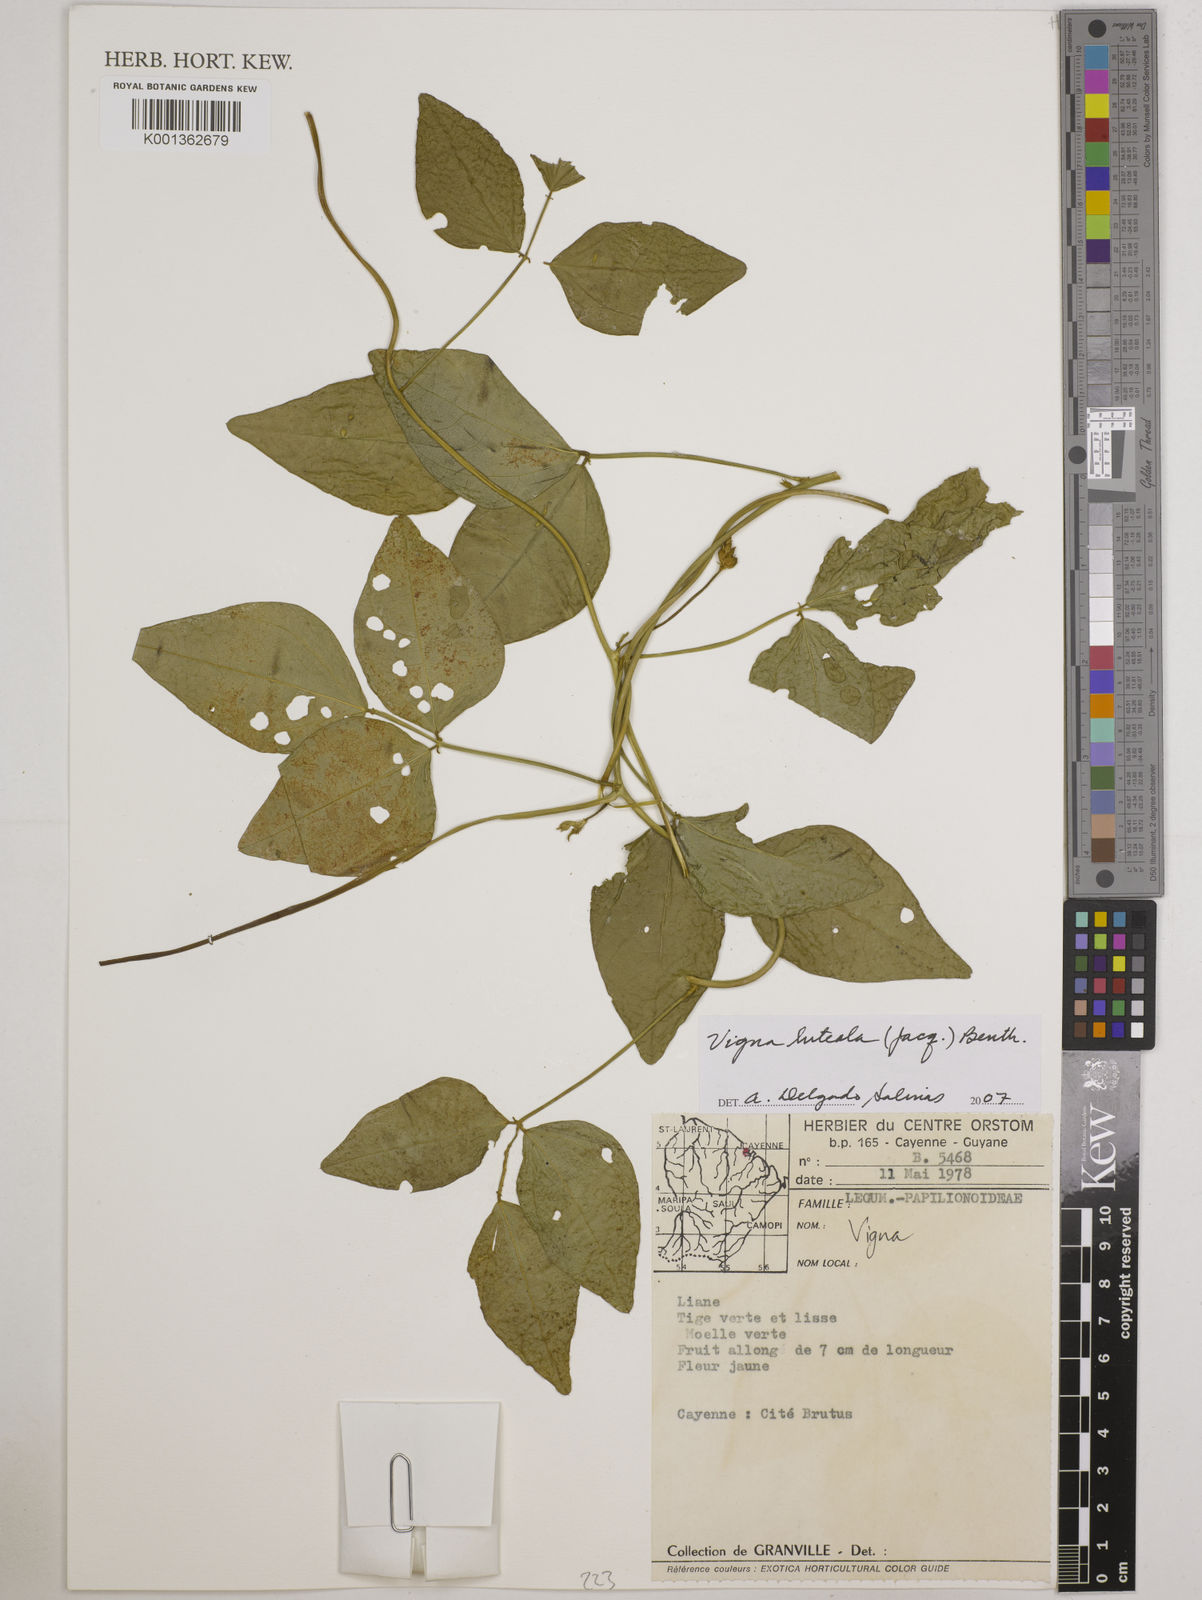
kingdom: Plantae
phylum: Tracheophyta
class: Magnoliopsida
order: Fabales
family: Fabaceae
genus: Vigna
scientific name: Vigna luteola
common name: Hairypod cowpea
